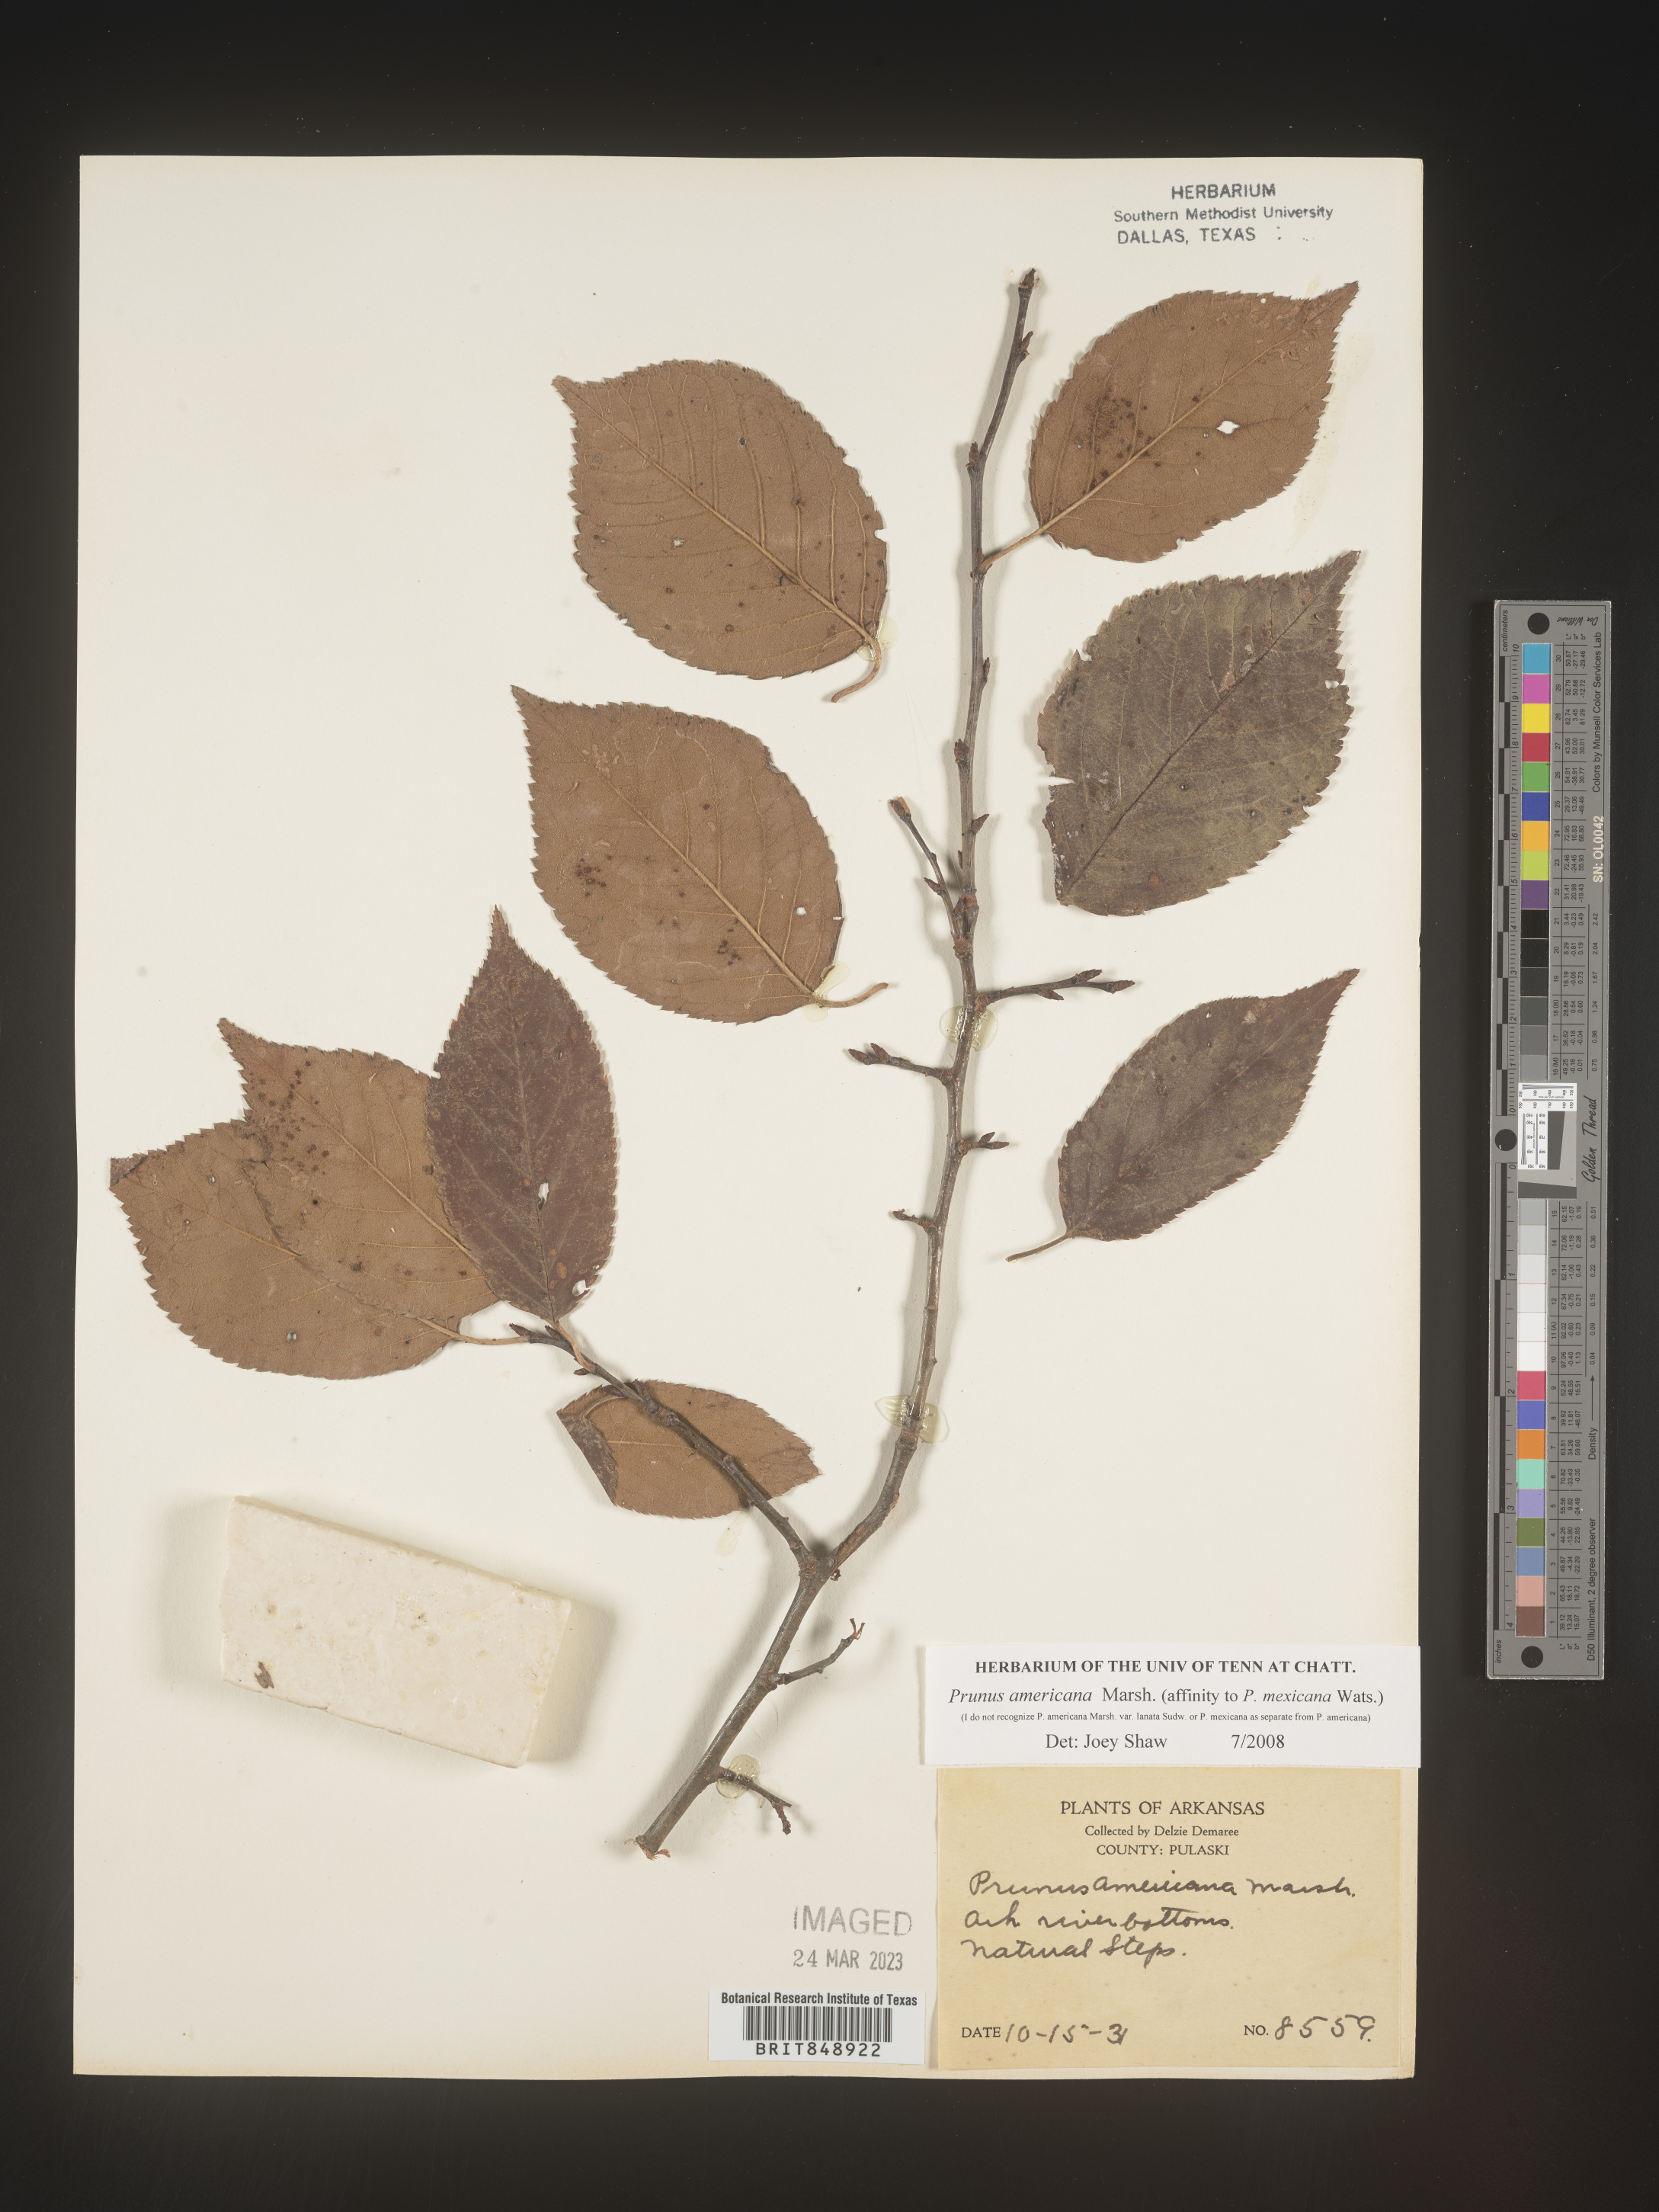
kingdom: Plantae
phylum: Tracheophyta
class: Magnoliopsida
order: Rosales
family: Rosaceae
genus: Prunus
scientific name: Prunus americana
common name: American plum
